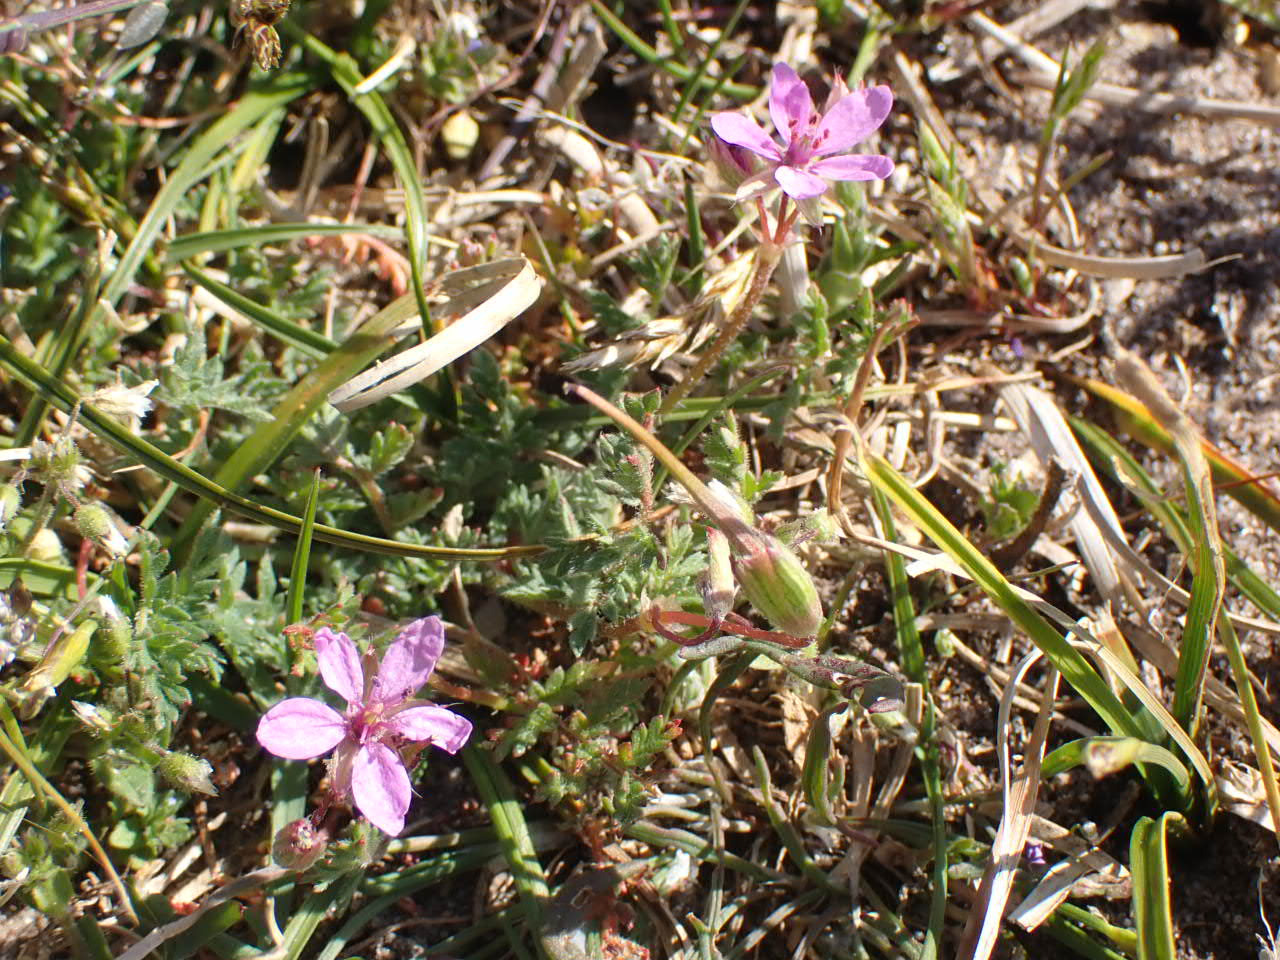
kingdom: Plantae
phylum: Tracheophyta
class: Magnoliopsida
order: Geraniales
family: Geraniaceae
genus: Erodium
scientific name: Erodium cicutarium
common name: Hejrenæb
